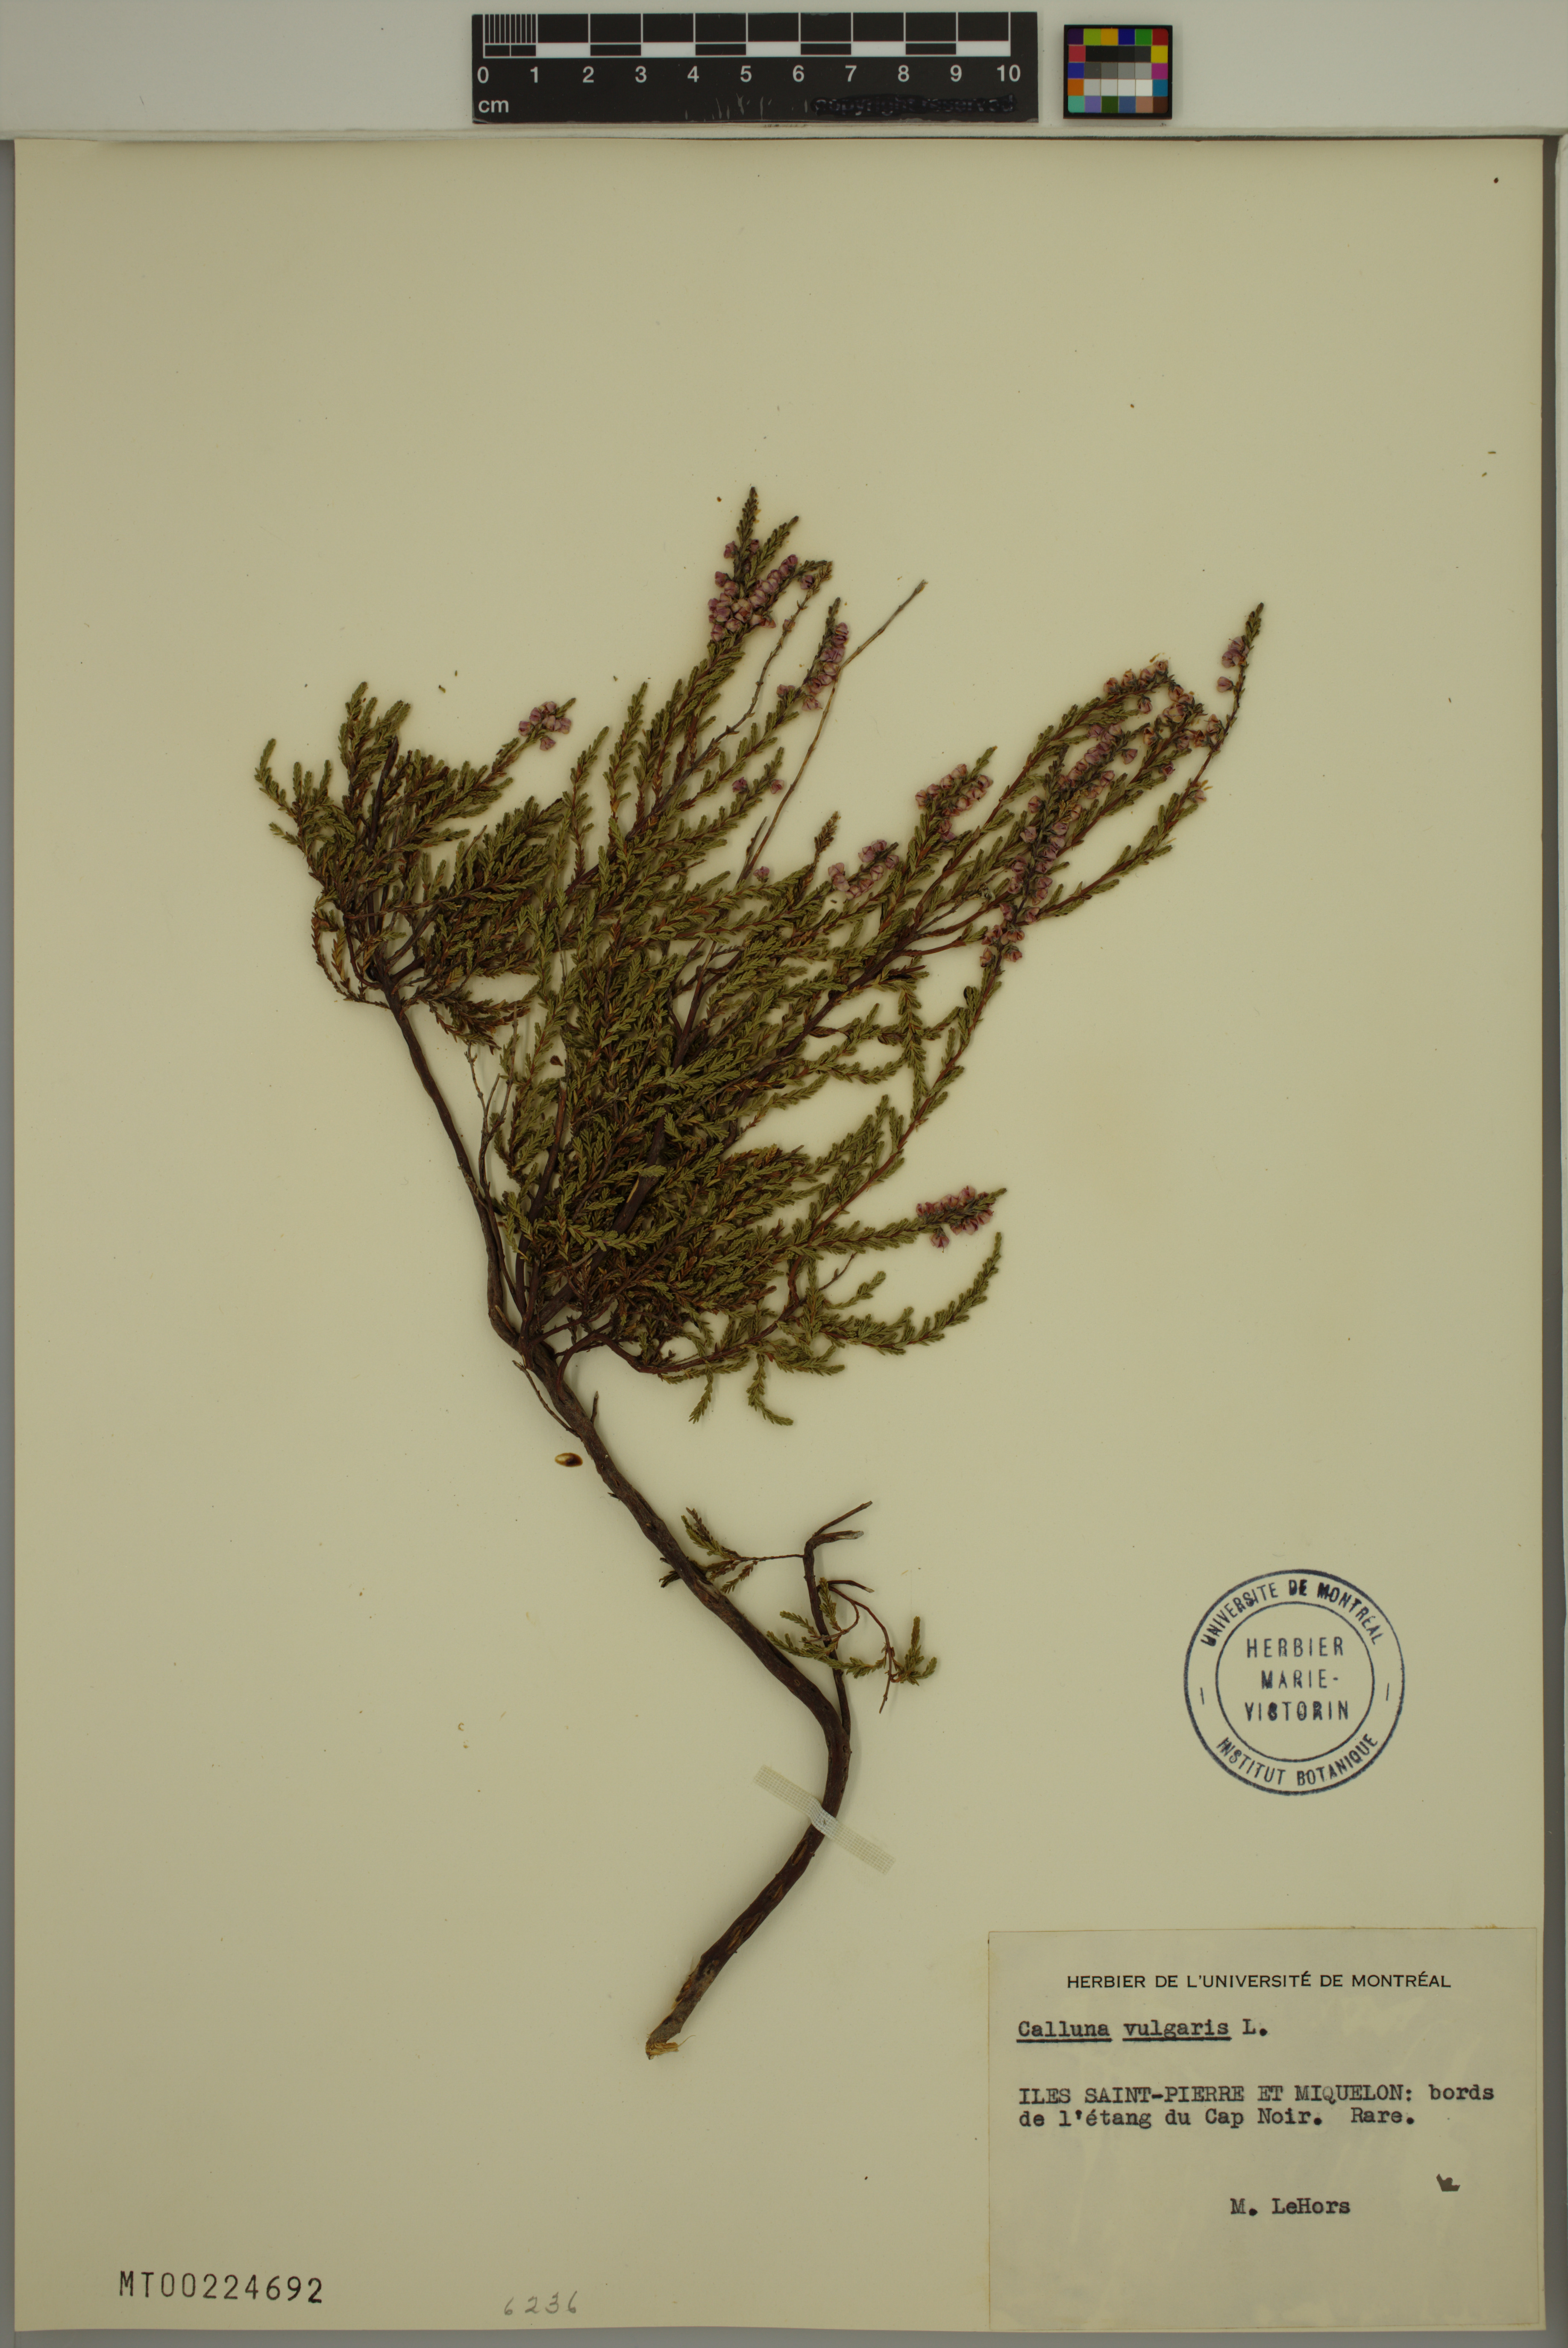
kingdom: Plantae
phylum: Tracheophyta
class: Magnoliopsida
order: Ericales
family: Ericaceae
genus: Calluna
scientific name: Calluna vulgaris
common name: Heather
